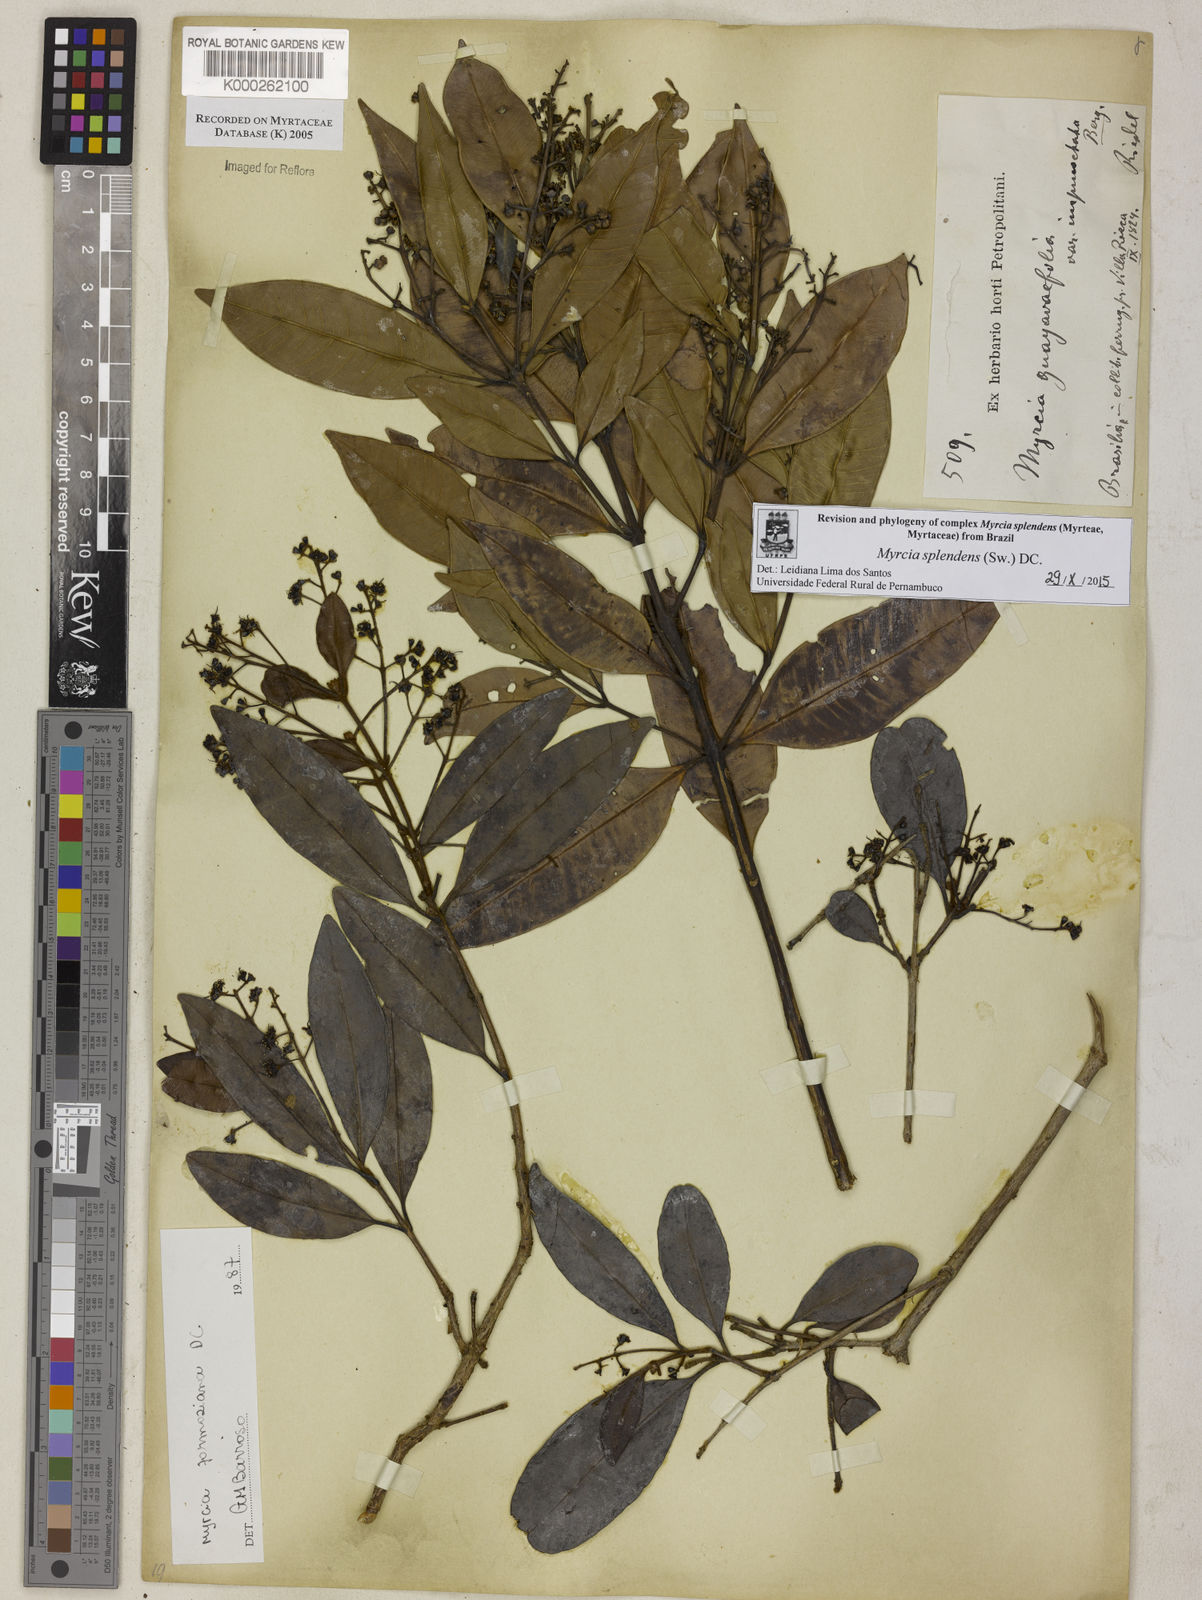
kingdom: Plantae
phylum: Tracheophyta
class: Magnoliopsida
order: Myrtales
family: Myrtaceae
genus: Myrcia
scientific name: Myrcia splendens
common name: Surinam cherry
